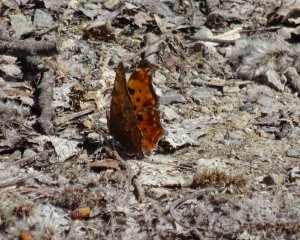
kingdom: Animalia
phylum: Arthropoda
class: Insecta
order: Lepidoptera
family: Nymphalidae
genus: Polygonia
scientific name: Polygonia comma
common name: Eastern Comma
